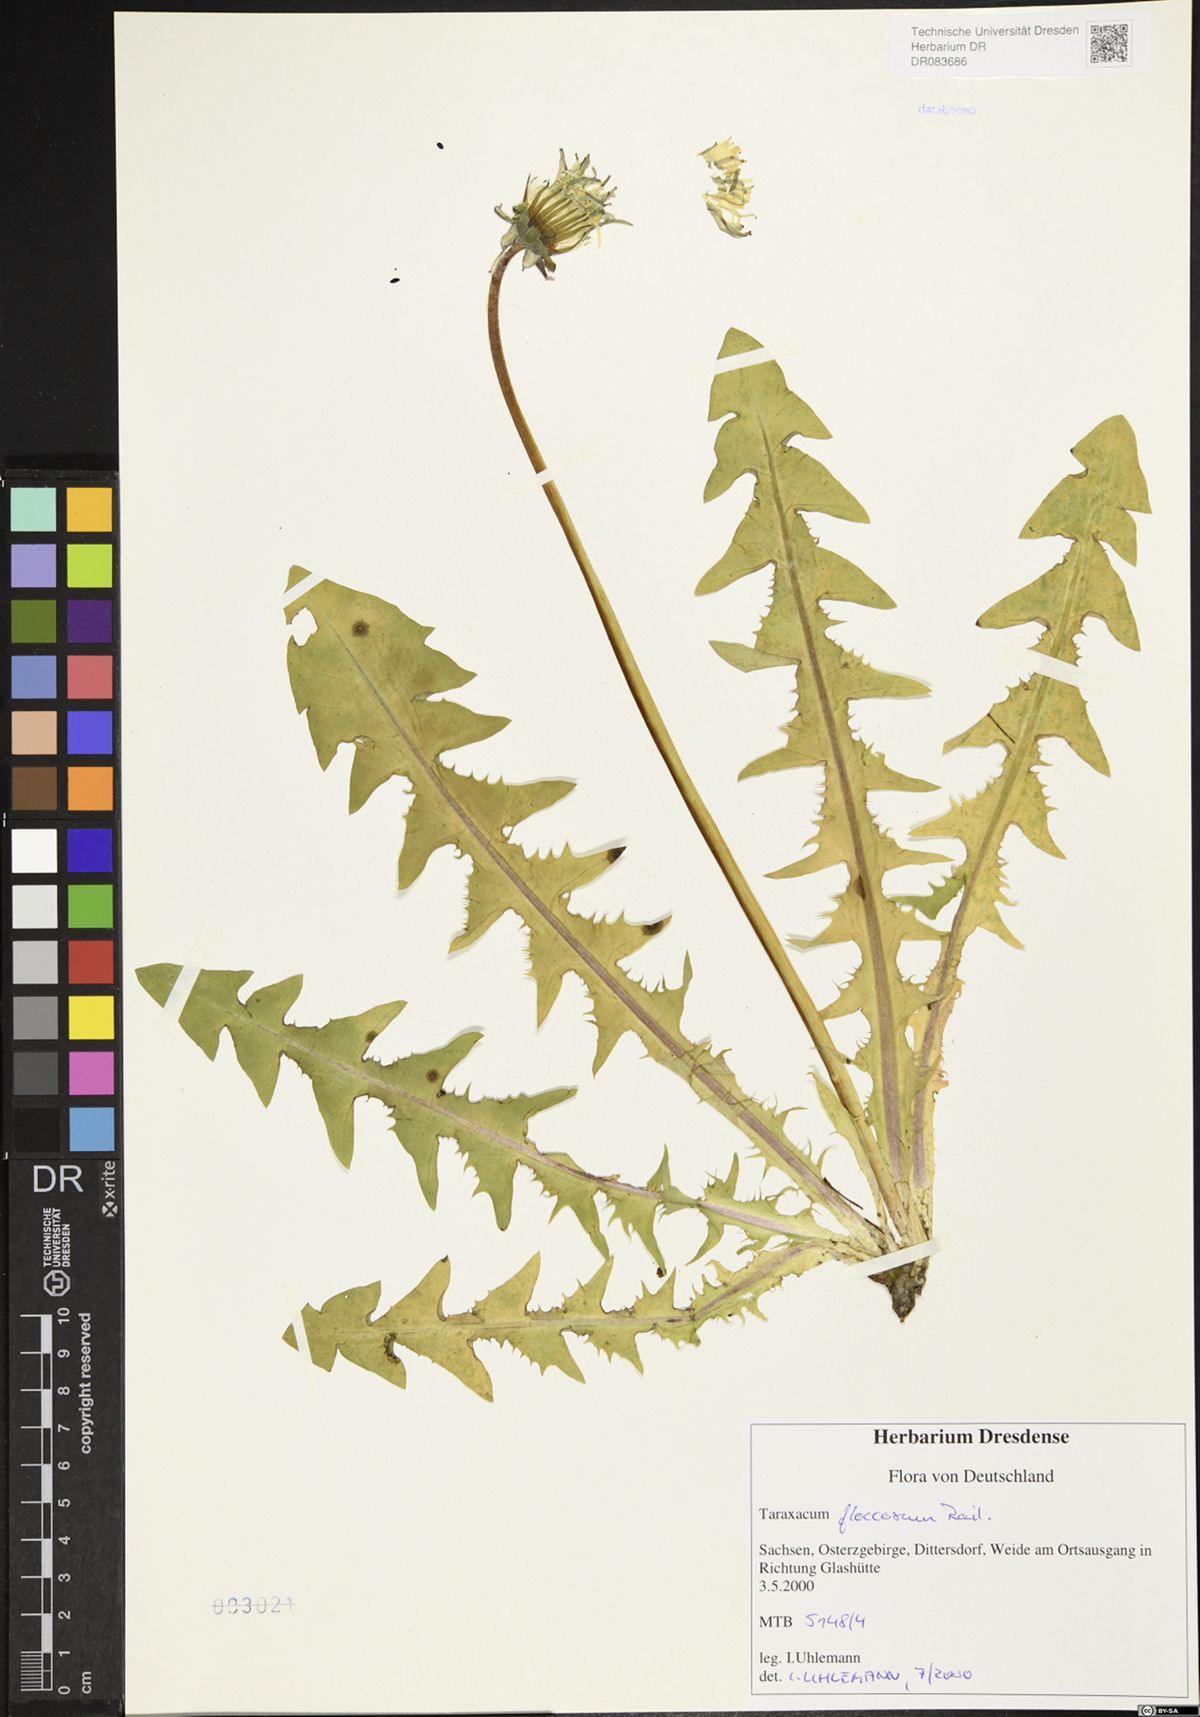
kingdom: Plantae
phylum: Tracheophyta
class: Magnoliopsida
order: Asterales
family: Asteraceae
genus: Taraxacum
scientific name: Taraxacum floccosum
